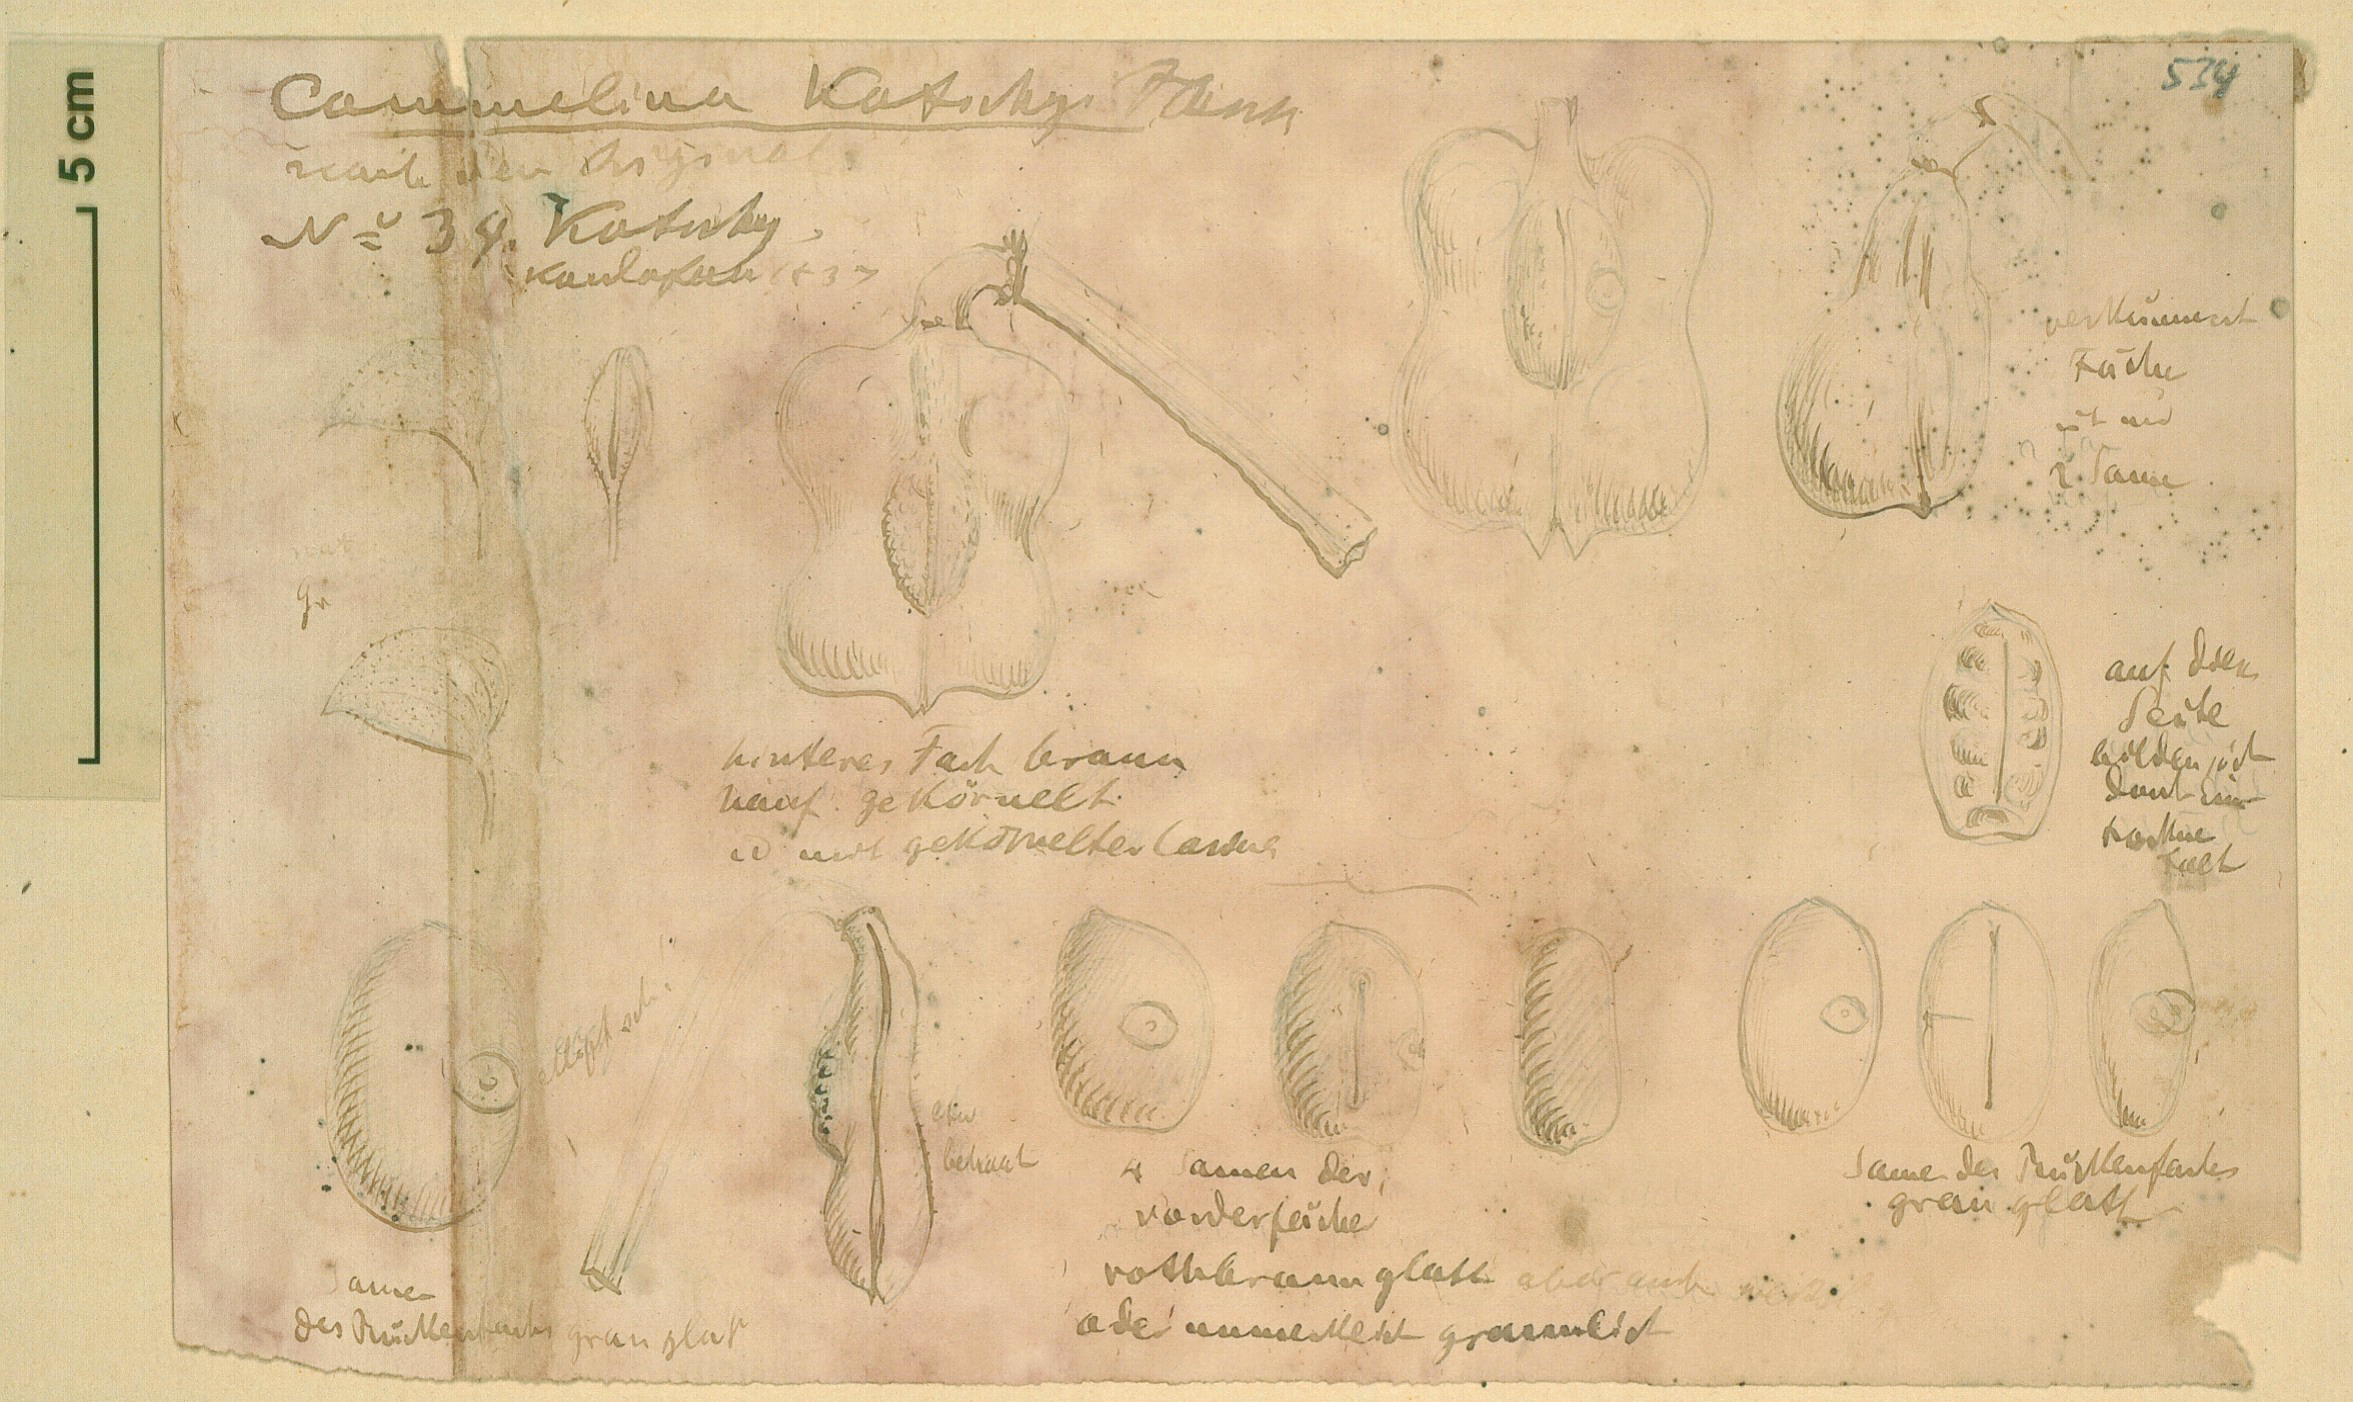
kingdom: Plantae
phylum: Tracheophyta
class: Liliopsida
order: Commelinales
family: Commelinaceae
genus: Commelina
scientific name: Commelina imberbis
